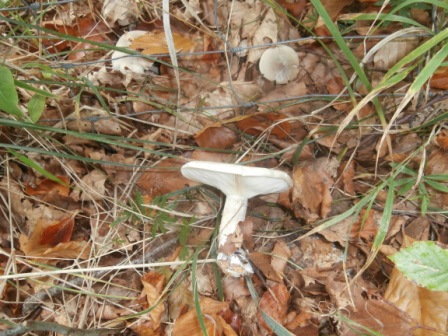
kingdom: Fungi
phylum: Basidiomycota
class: Agaricomycetes
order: Agaricales
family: Tricholomataceae
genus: Clitocybe
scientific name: Clitocybe nebularis
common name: tåge-tragthat
